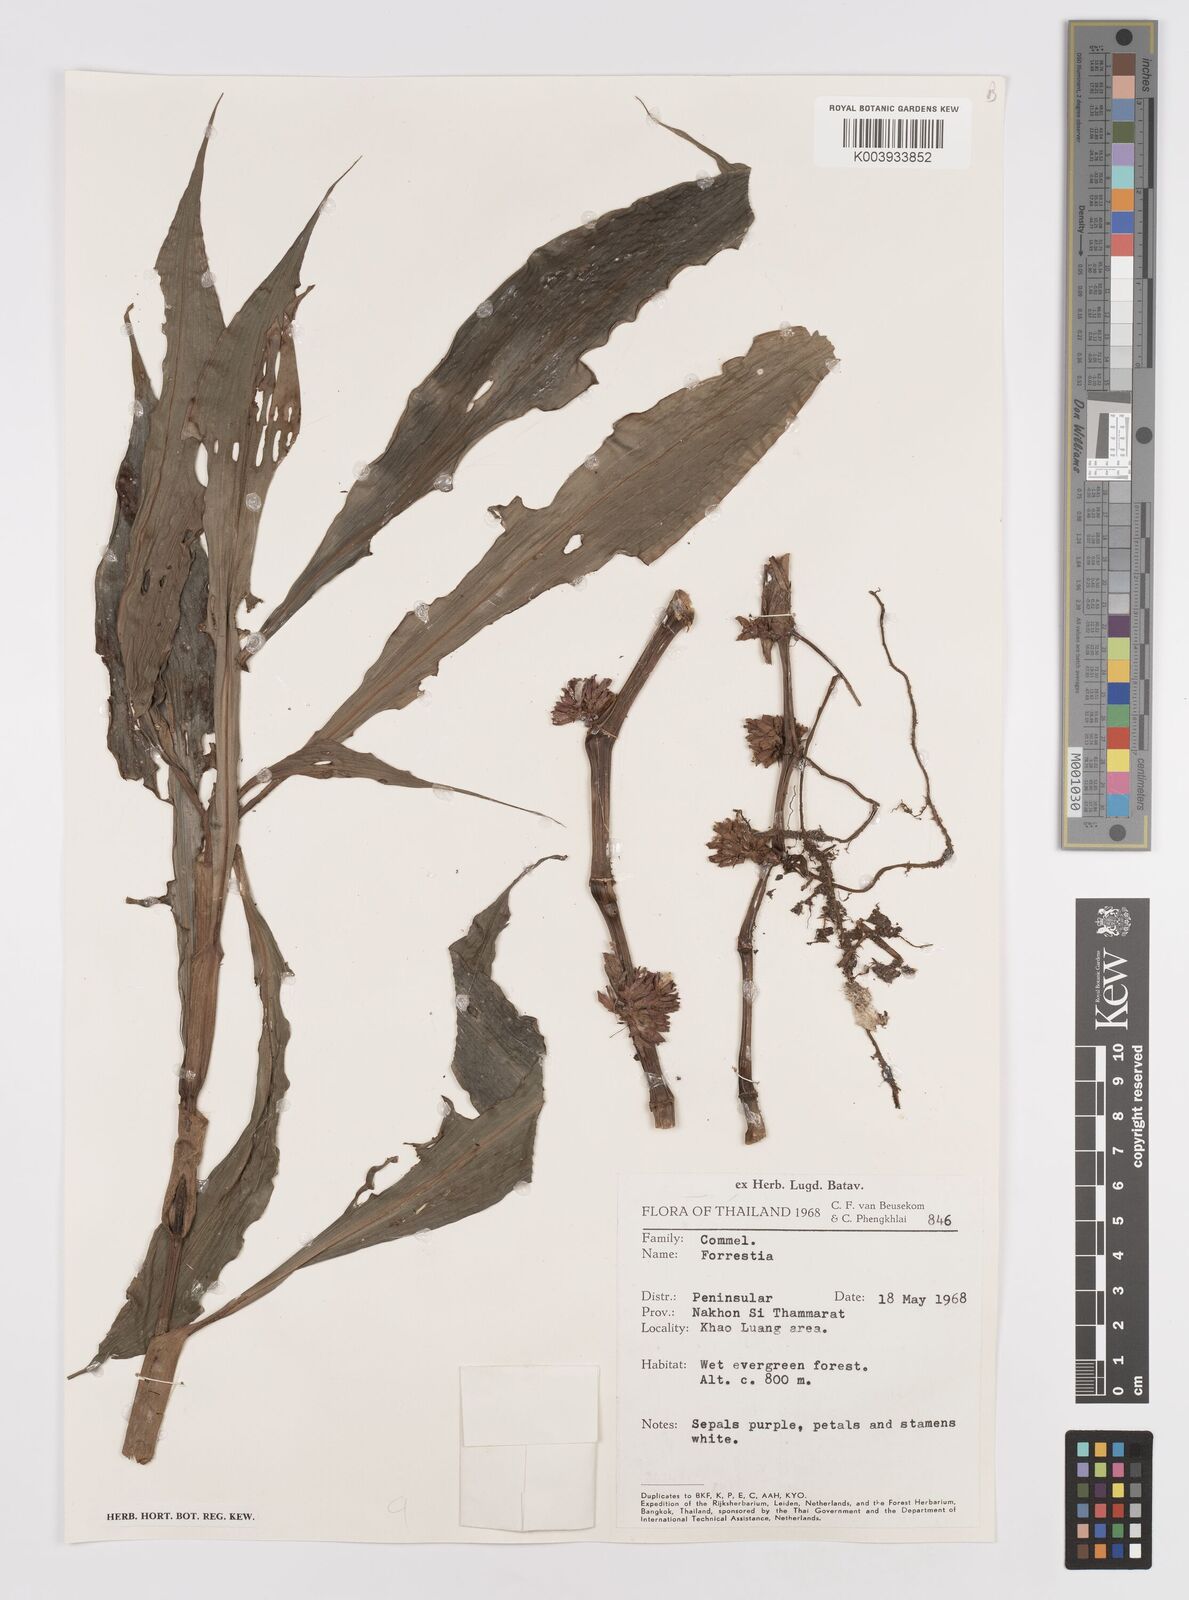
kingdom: Plantae
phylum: Tracheophyta
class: Liliopsida
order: Commelinales
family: Commelinaceae
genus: Amischotolype
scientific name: Amischotolype marginata
